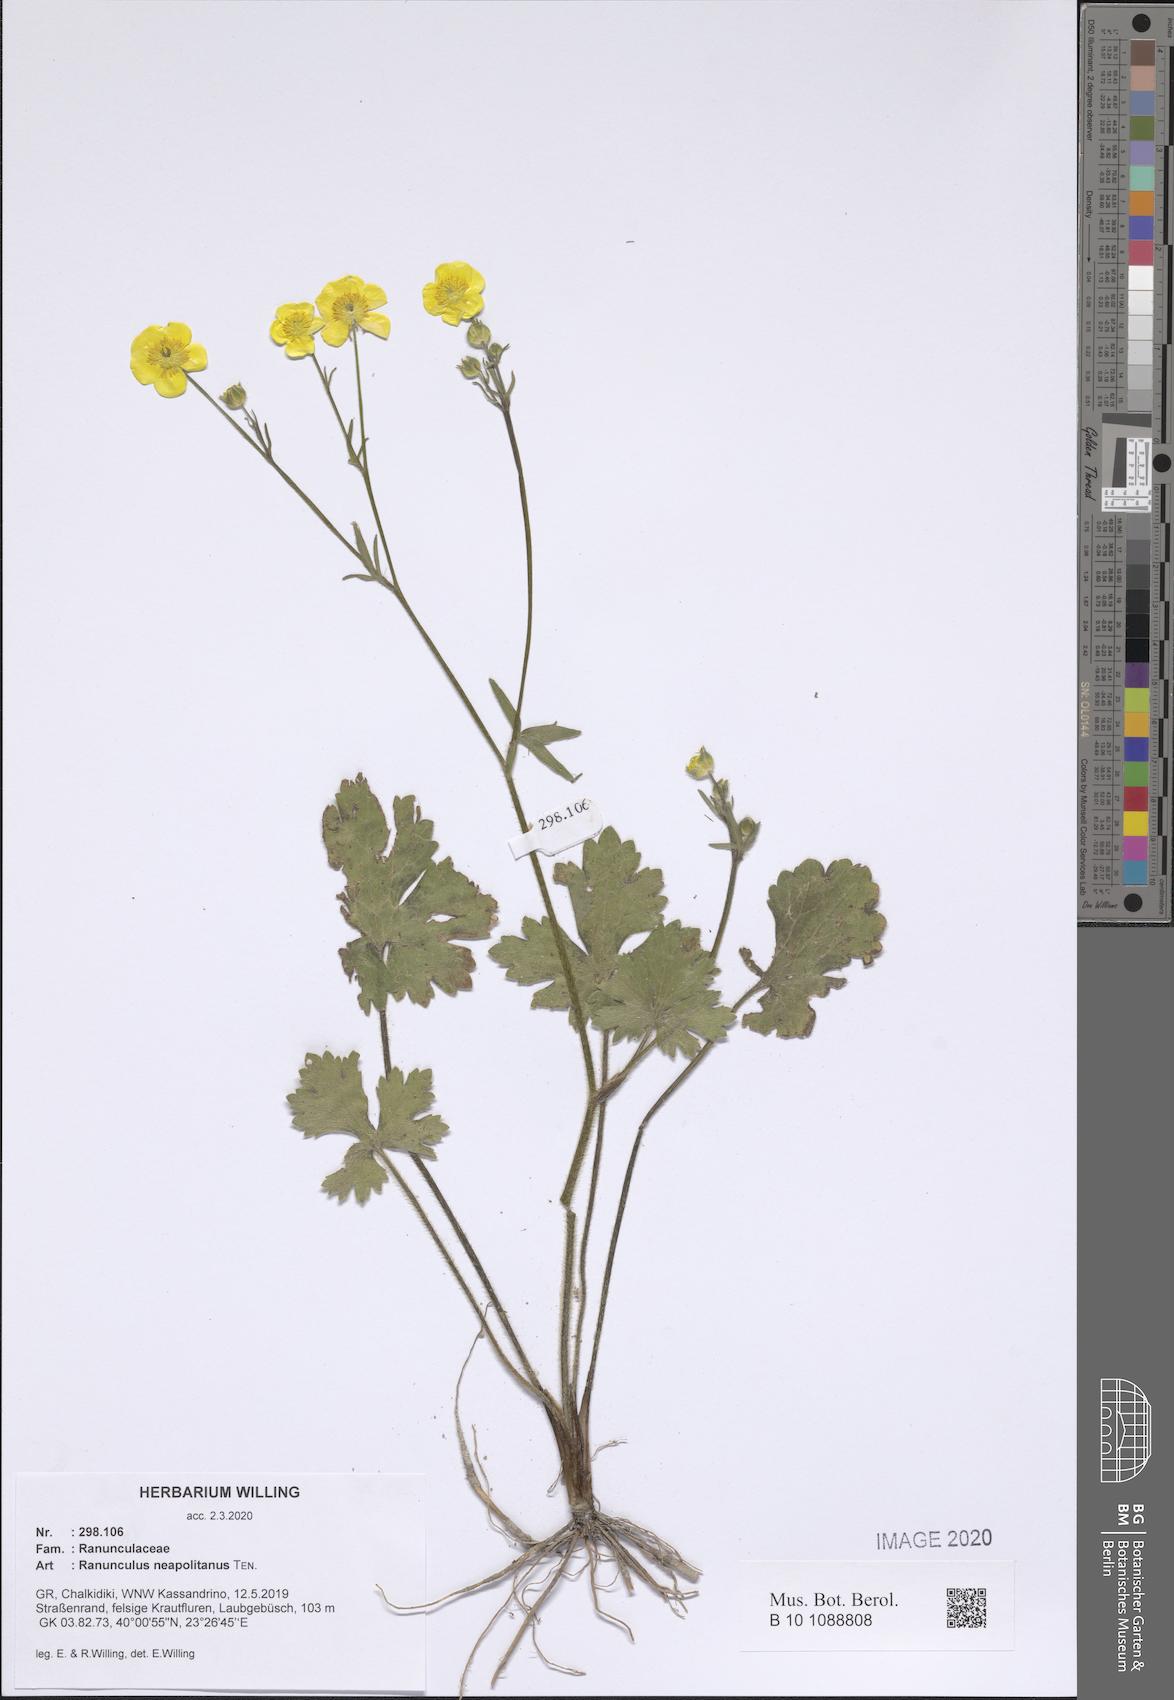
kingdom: Plantae
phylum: Tracheophyta
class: Magnoliopsida
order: Ranunculales
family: Ranunculaceae
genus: Ranunculus
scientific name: Ranunculus neapolitanus
